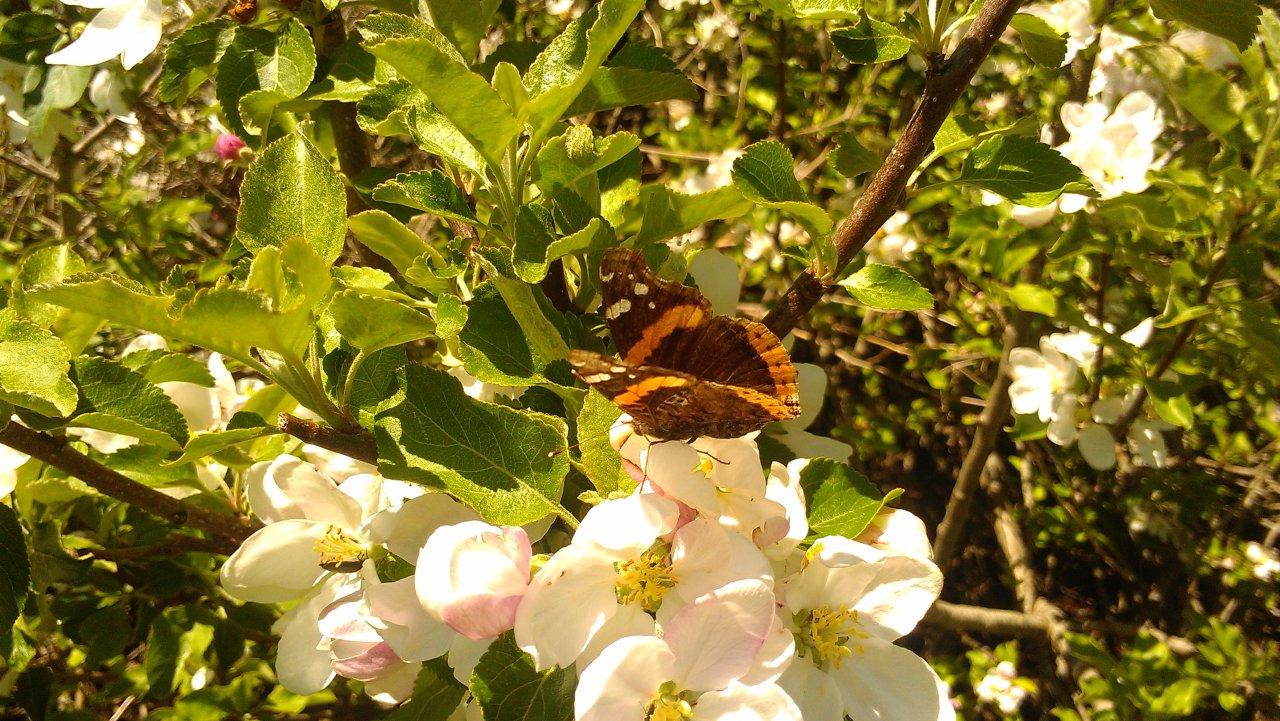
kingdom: Animalia
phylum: Arthropoda
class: Insecta
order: Lepidoptera
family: Nymphalidae
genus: Vanessa
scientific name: Vanessa atalanta
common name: Red Admiral
